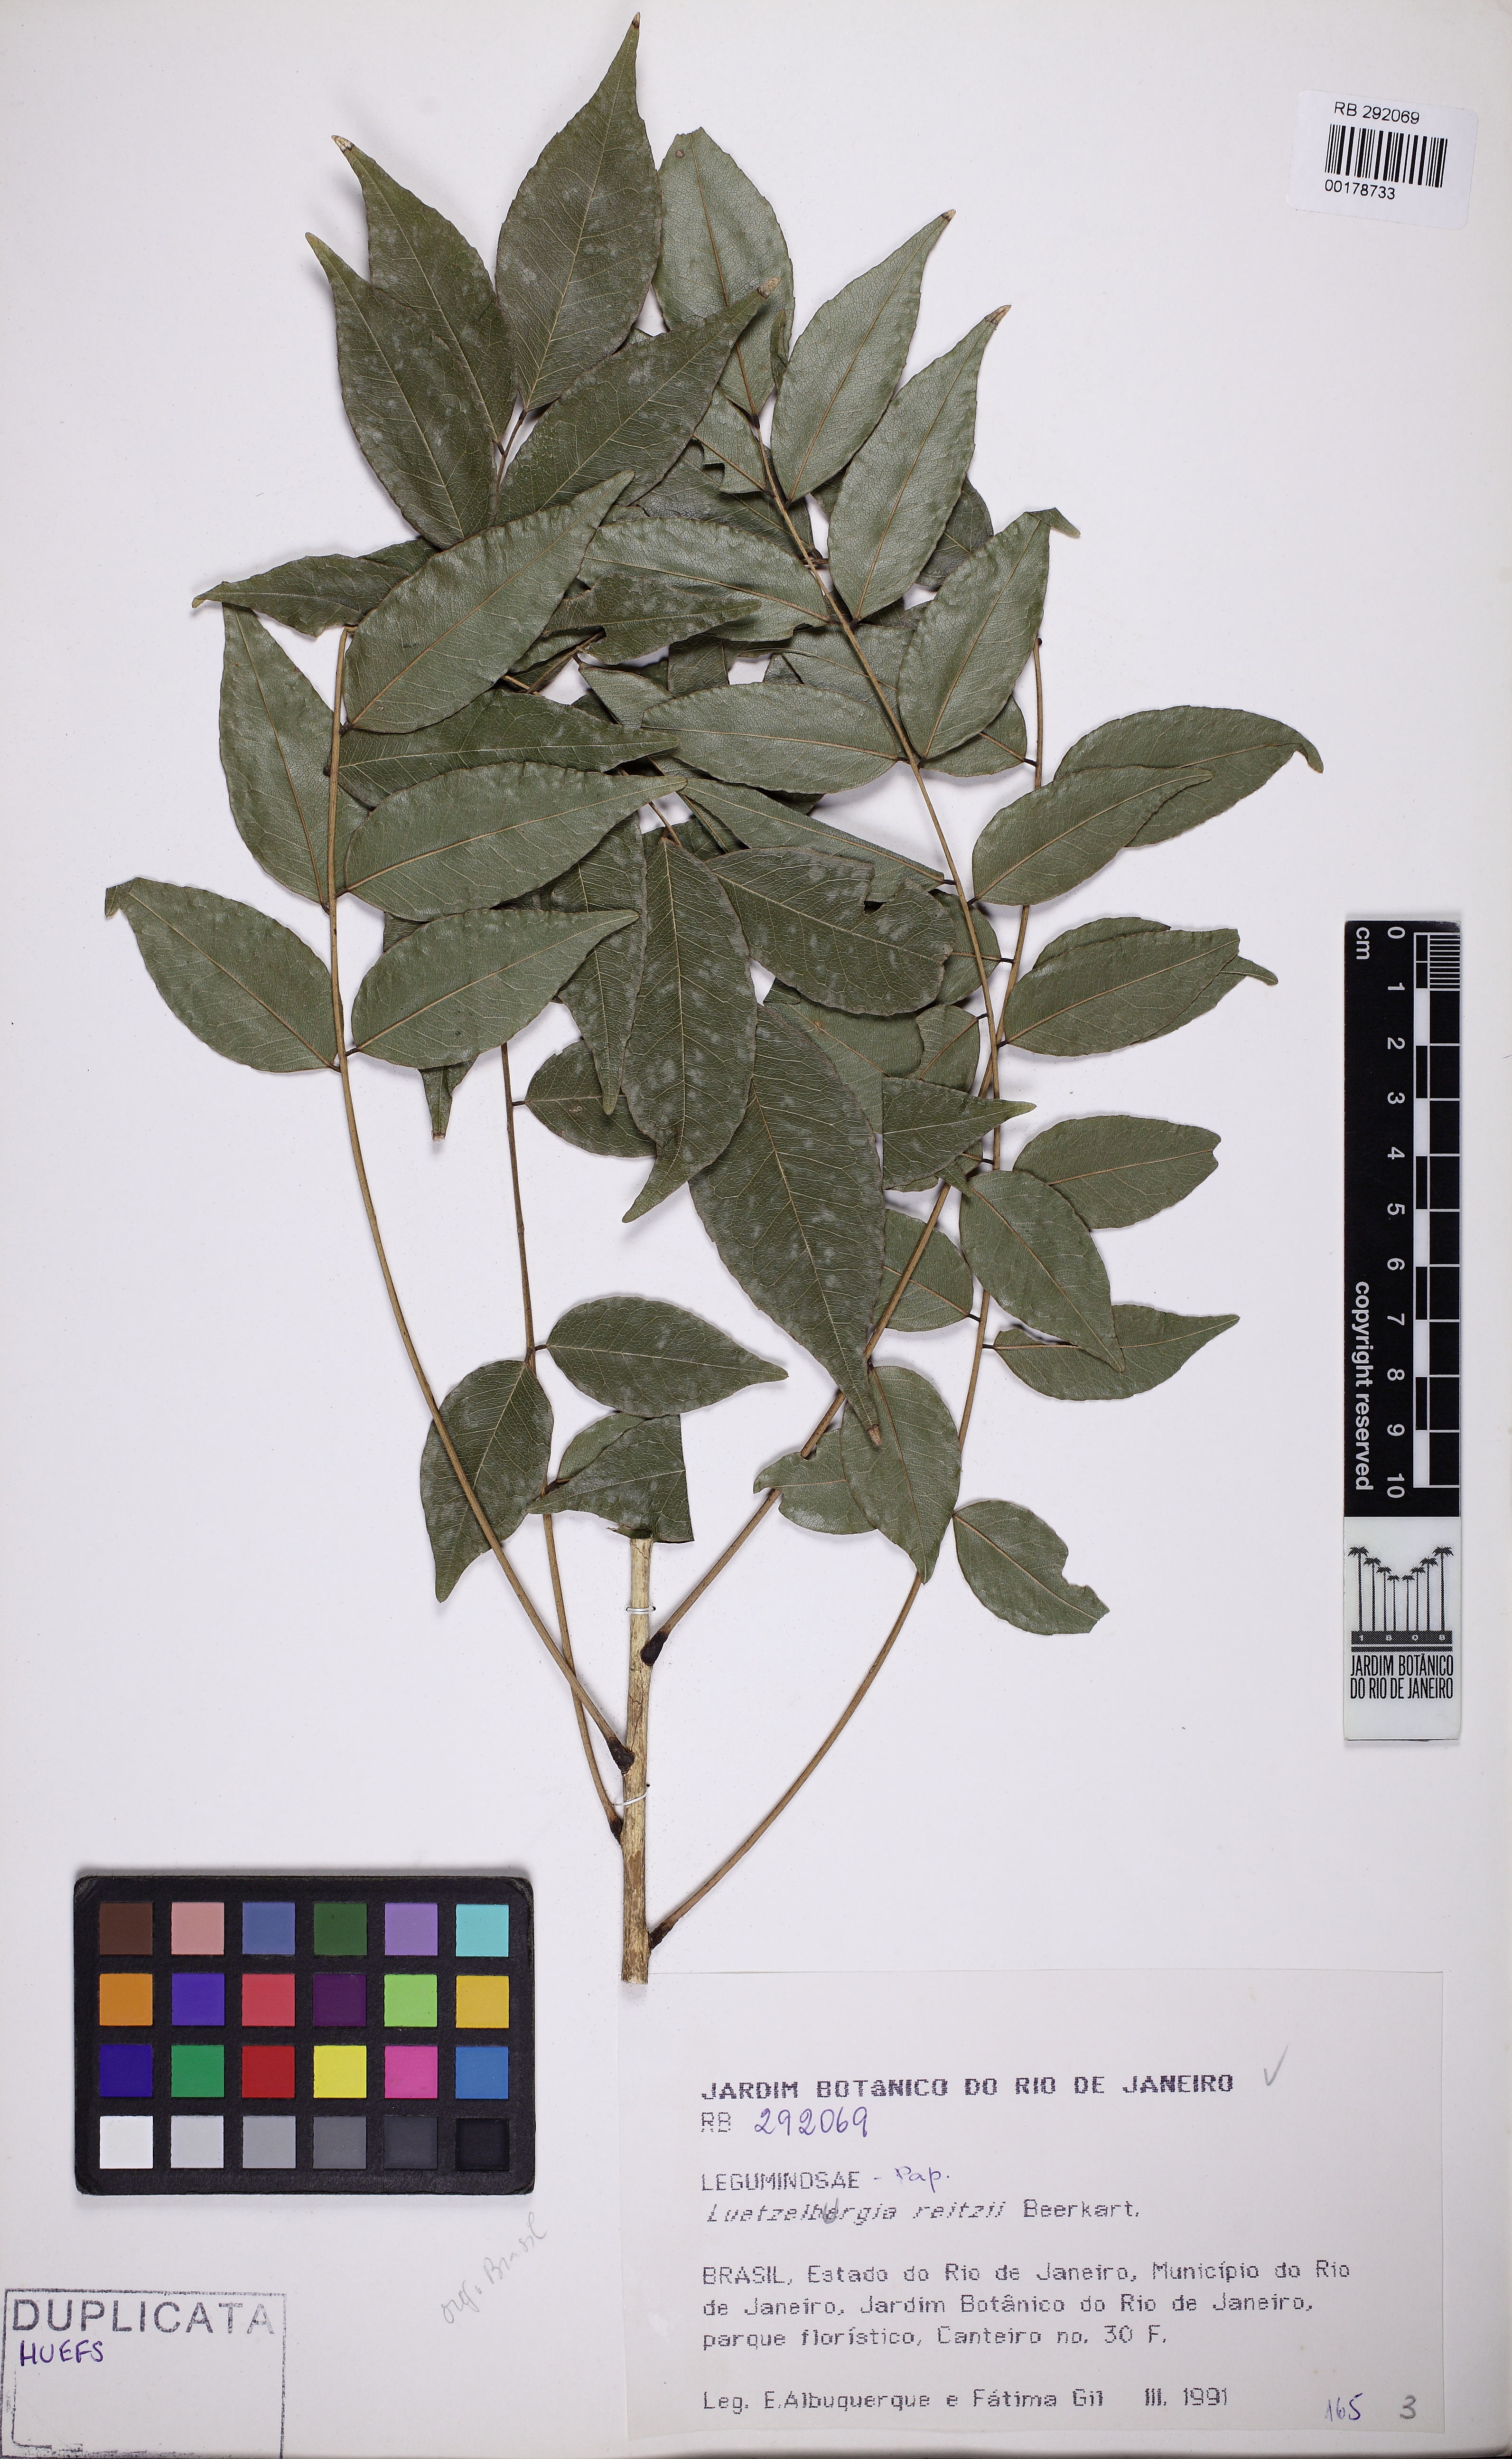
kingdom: Plantae
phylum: Tracheophyta
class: Magnoliopsida
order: Fabales
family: Fabaceae
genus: Luetzelburgia
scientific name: Luetzelburgia guaissara
